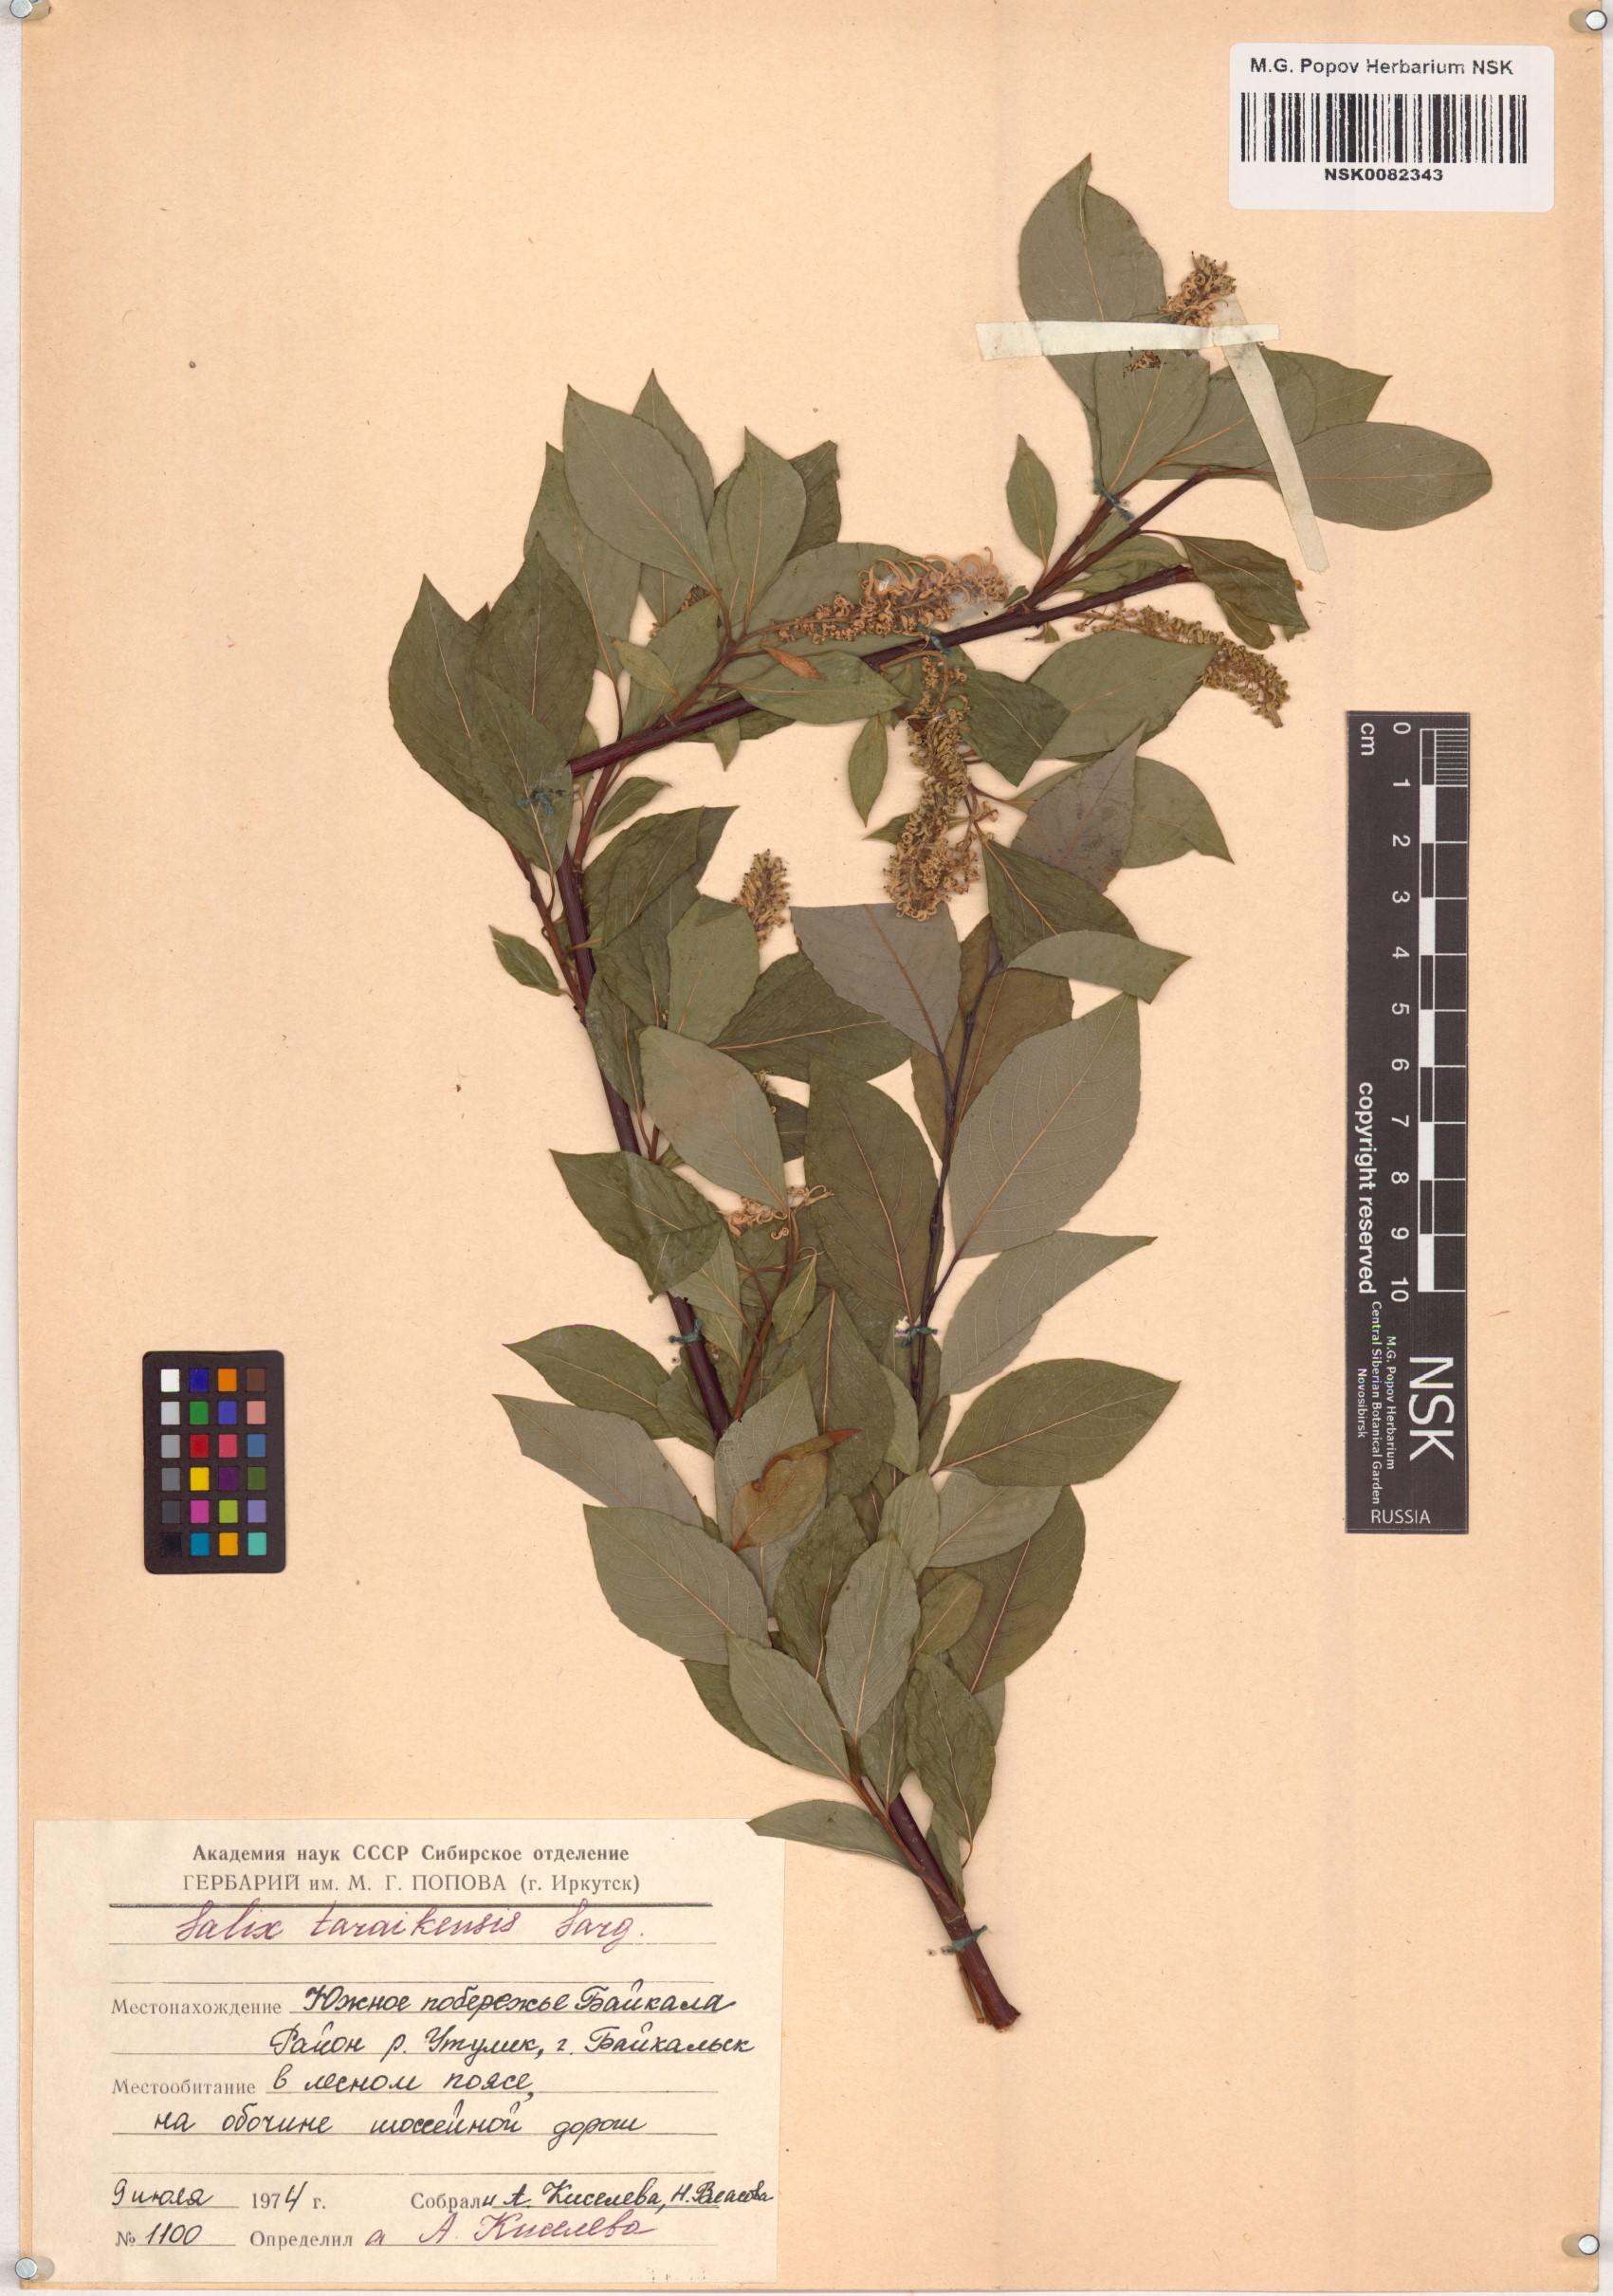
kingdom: Plantae
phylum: Tracheophyta
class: Magnoliopsida
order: Malpighiales
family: Salicaceae
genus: Salix
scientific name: Salix taraikensis
